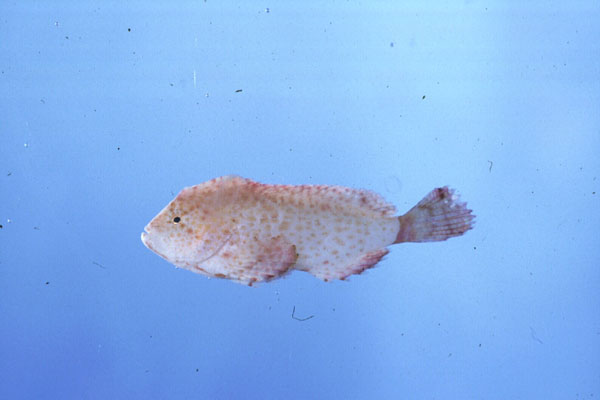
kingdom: Animalia
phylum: Chordata
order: Scorpaeniformes
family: Aploactinidae
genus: Ptarmus
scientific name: Ptarmus jubatus
